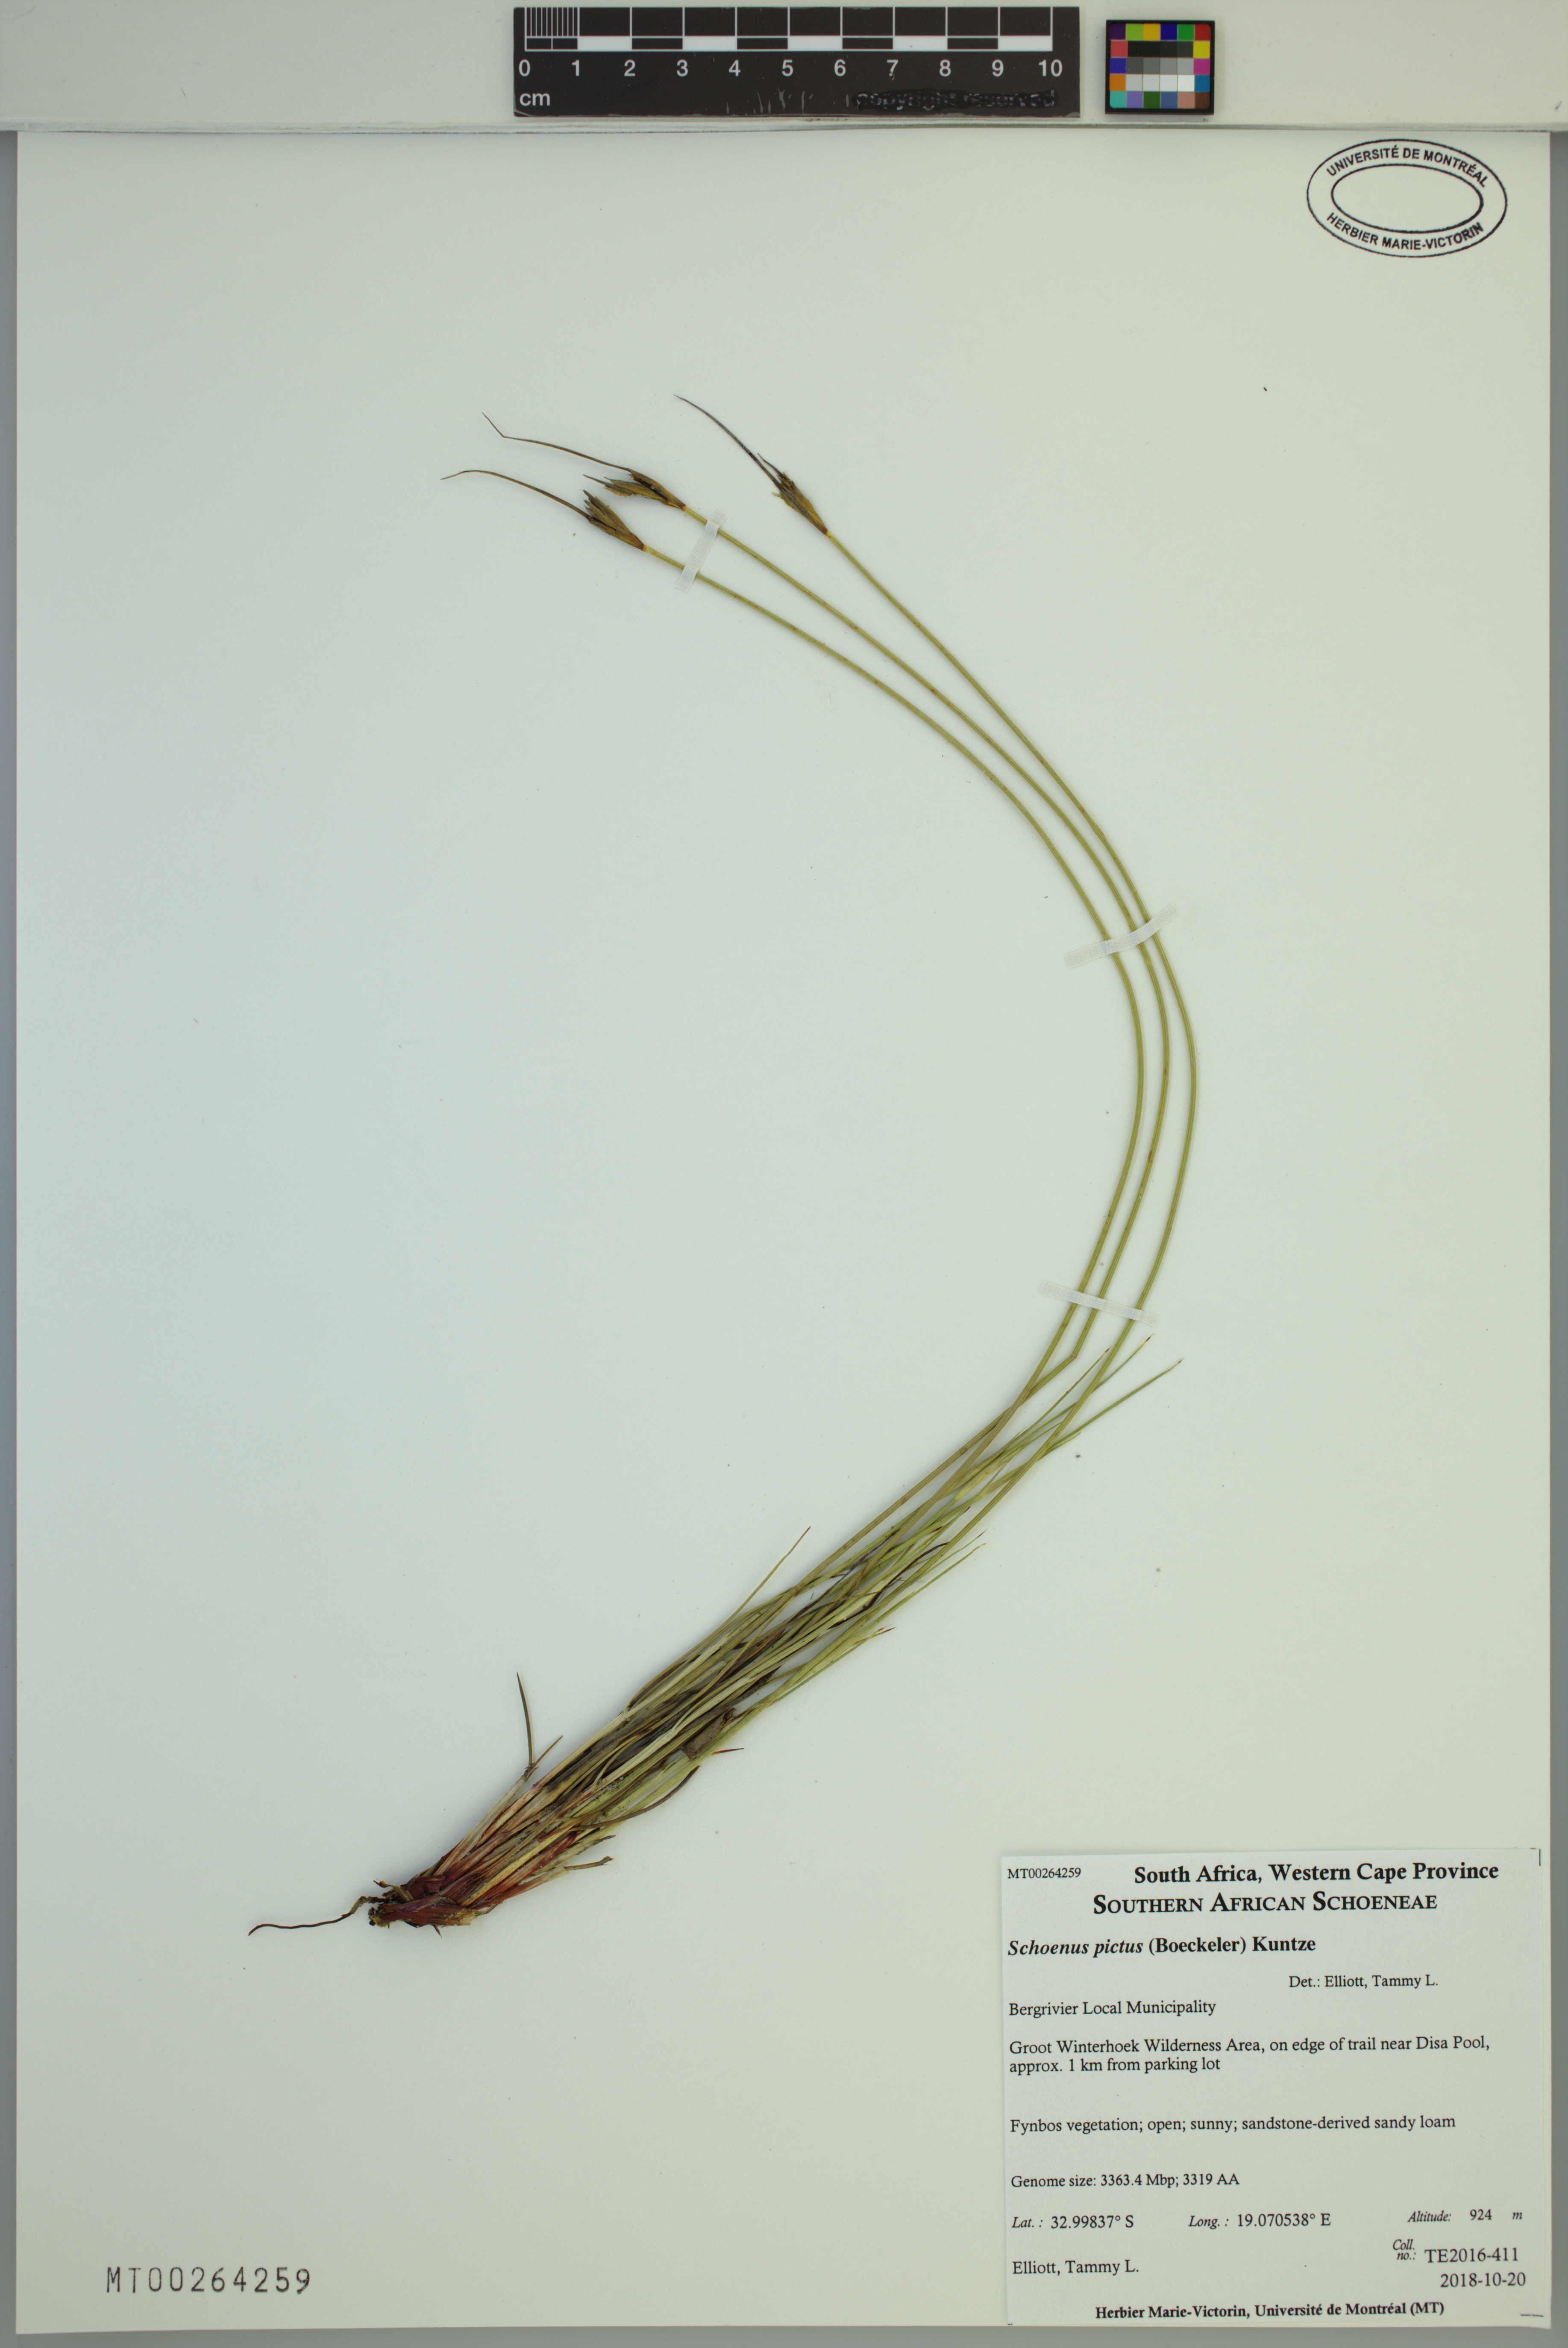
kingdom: Plantae
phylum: Tracheophyta
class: Liliopsida
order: Poales
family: Cyperaceae
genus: Schoenus
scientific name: Schoenus pictus
